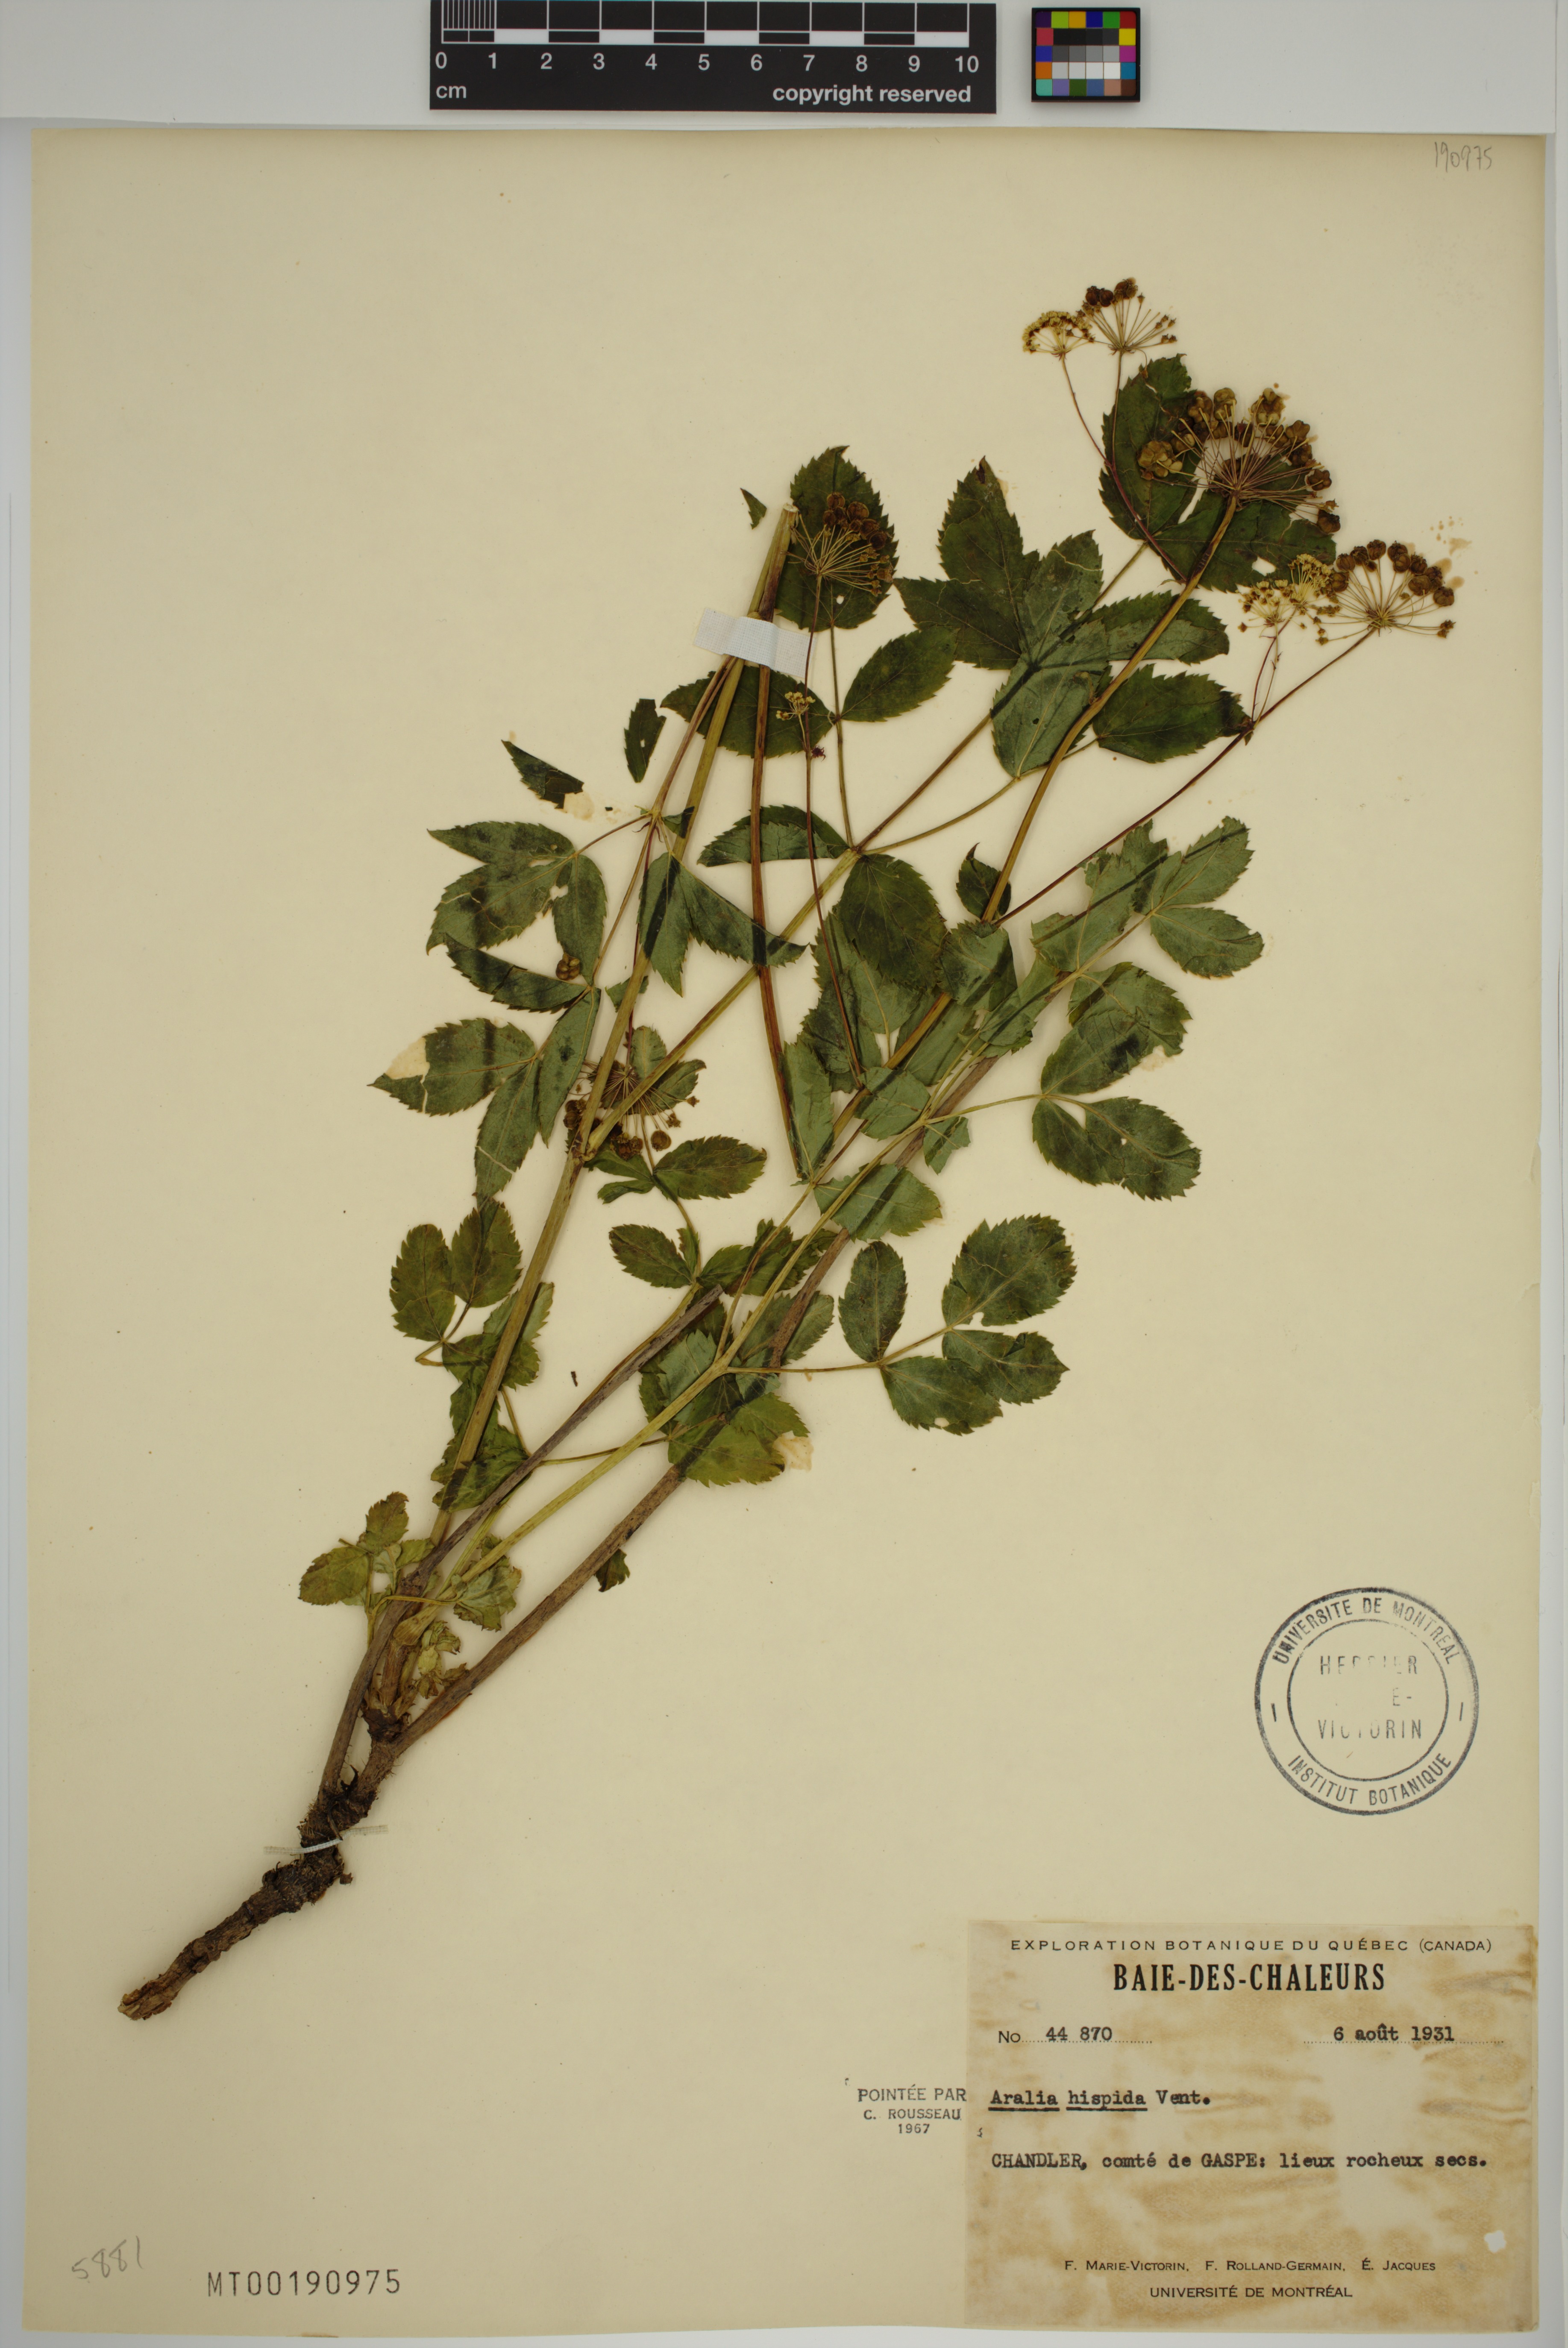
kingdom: Plantae
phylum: Tracheophyta
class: Magnoliopsida
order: Apiales
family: Araliaceae
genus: Aralia
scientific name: Aralia hispida
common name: Bristly sarsaparilla
